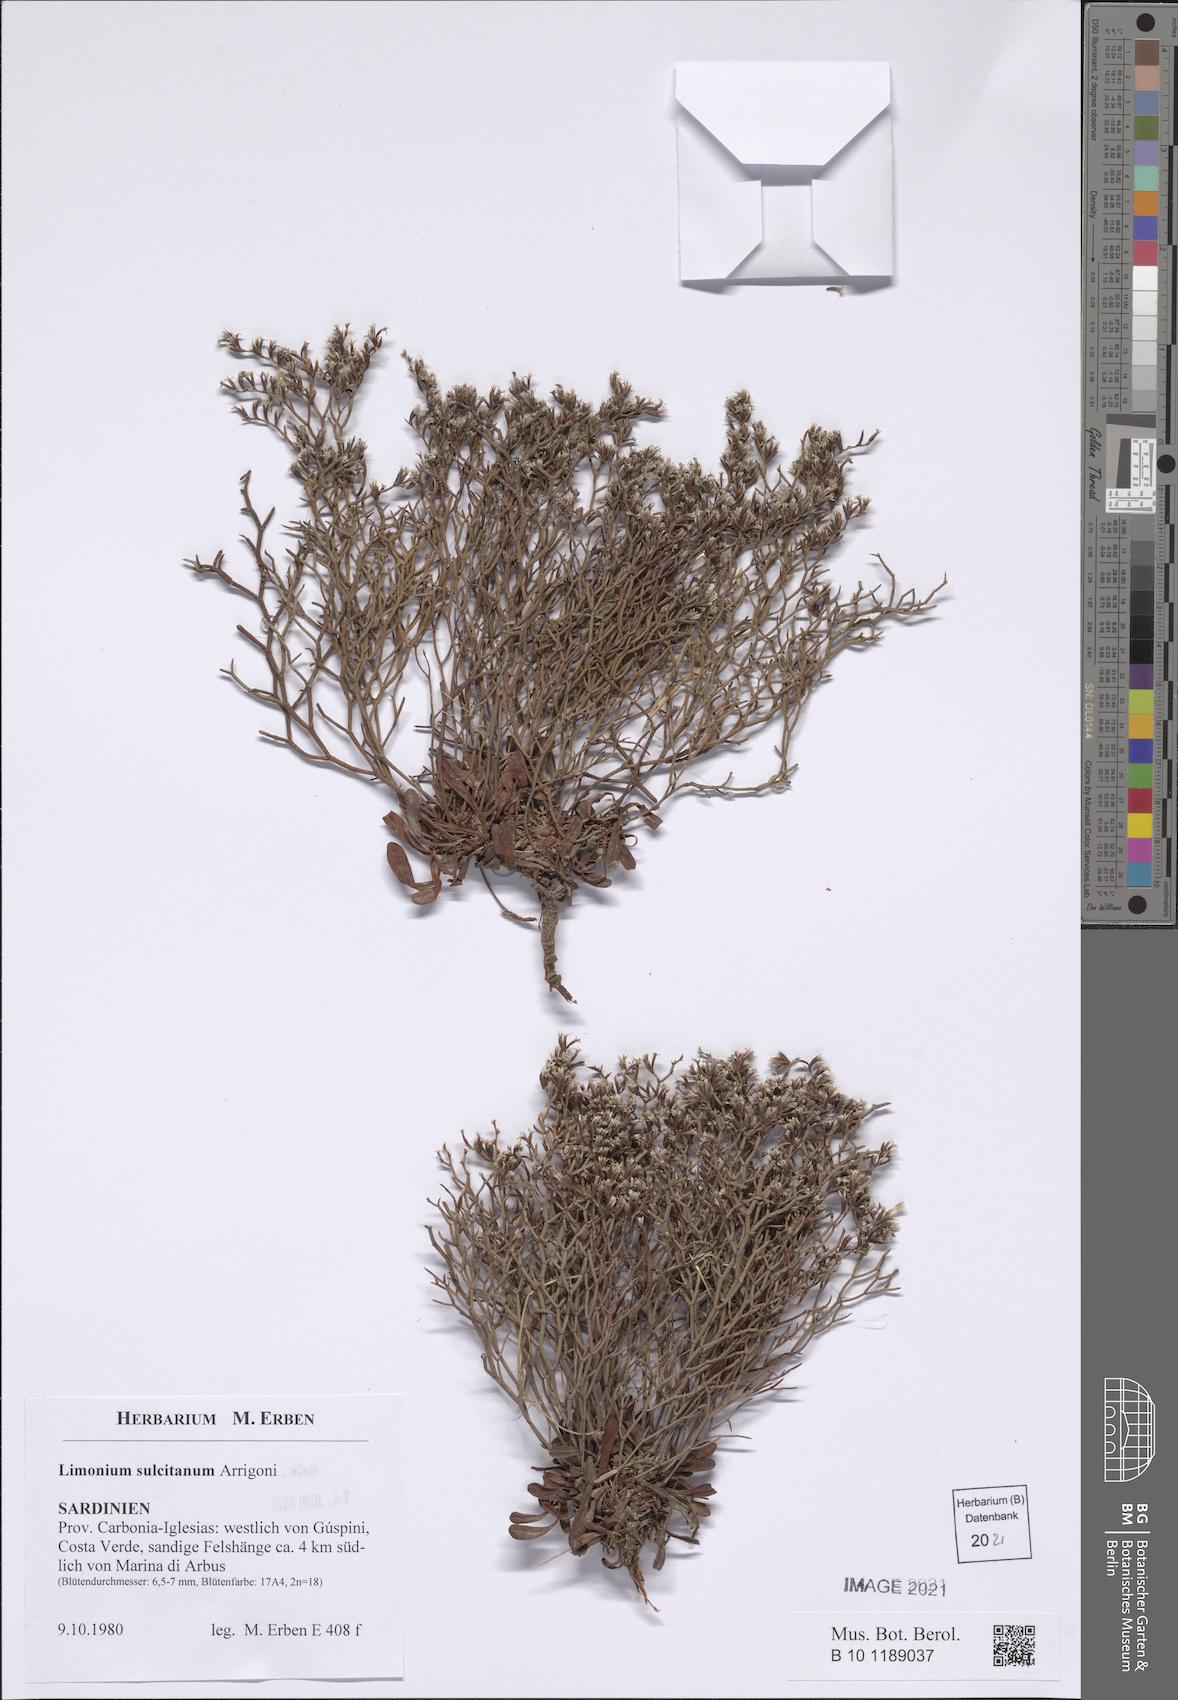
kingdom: Plantae
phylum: Tracheophyta
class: Magnoliopsida
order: Caryophyllales
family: Plumbaginaceae
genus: Limonium
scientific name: Limonium sulcitanum
